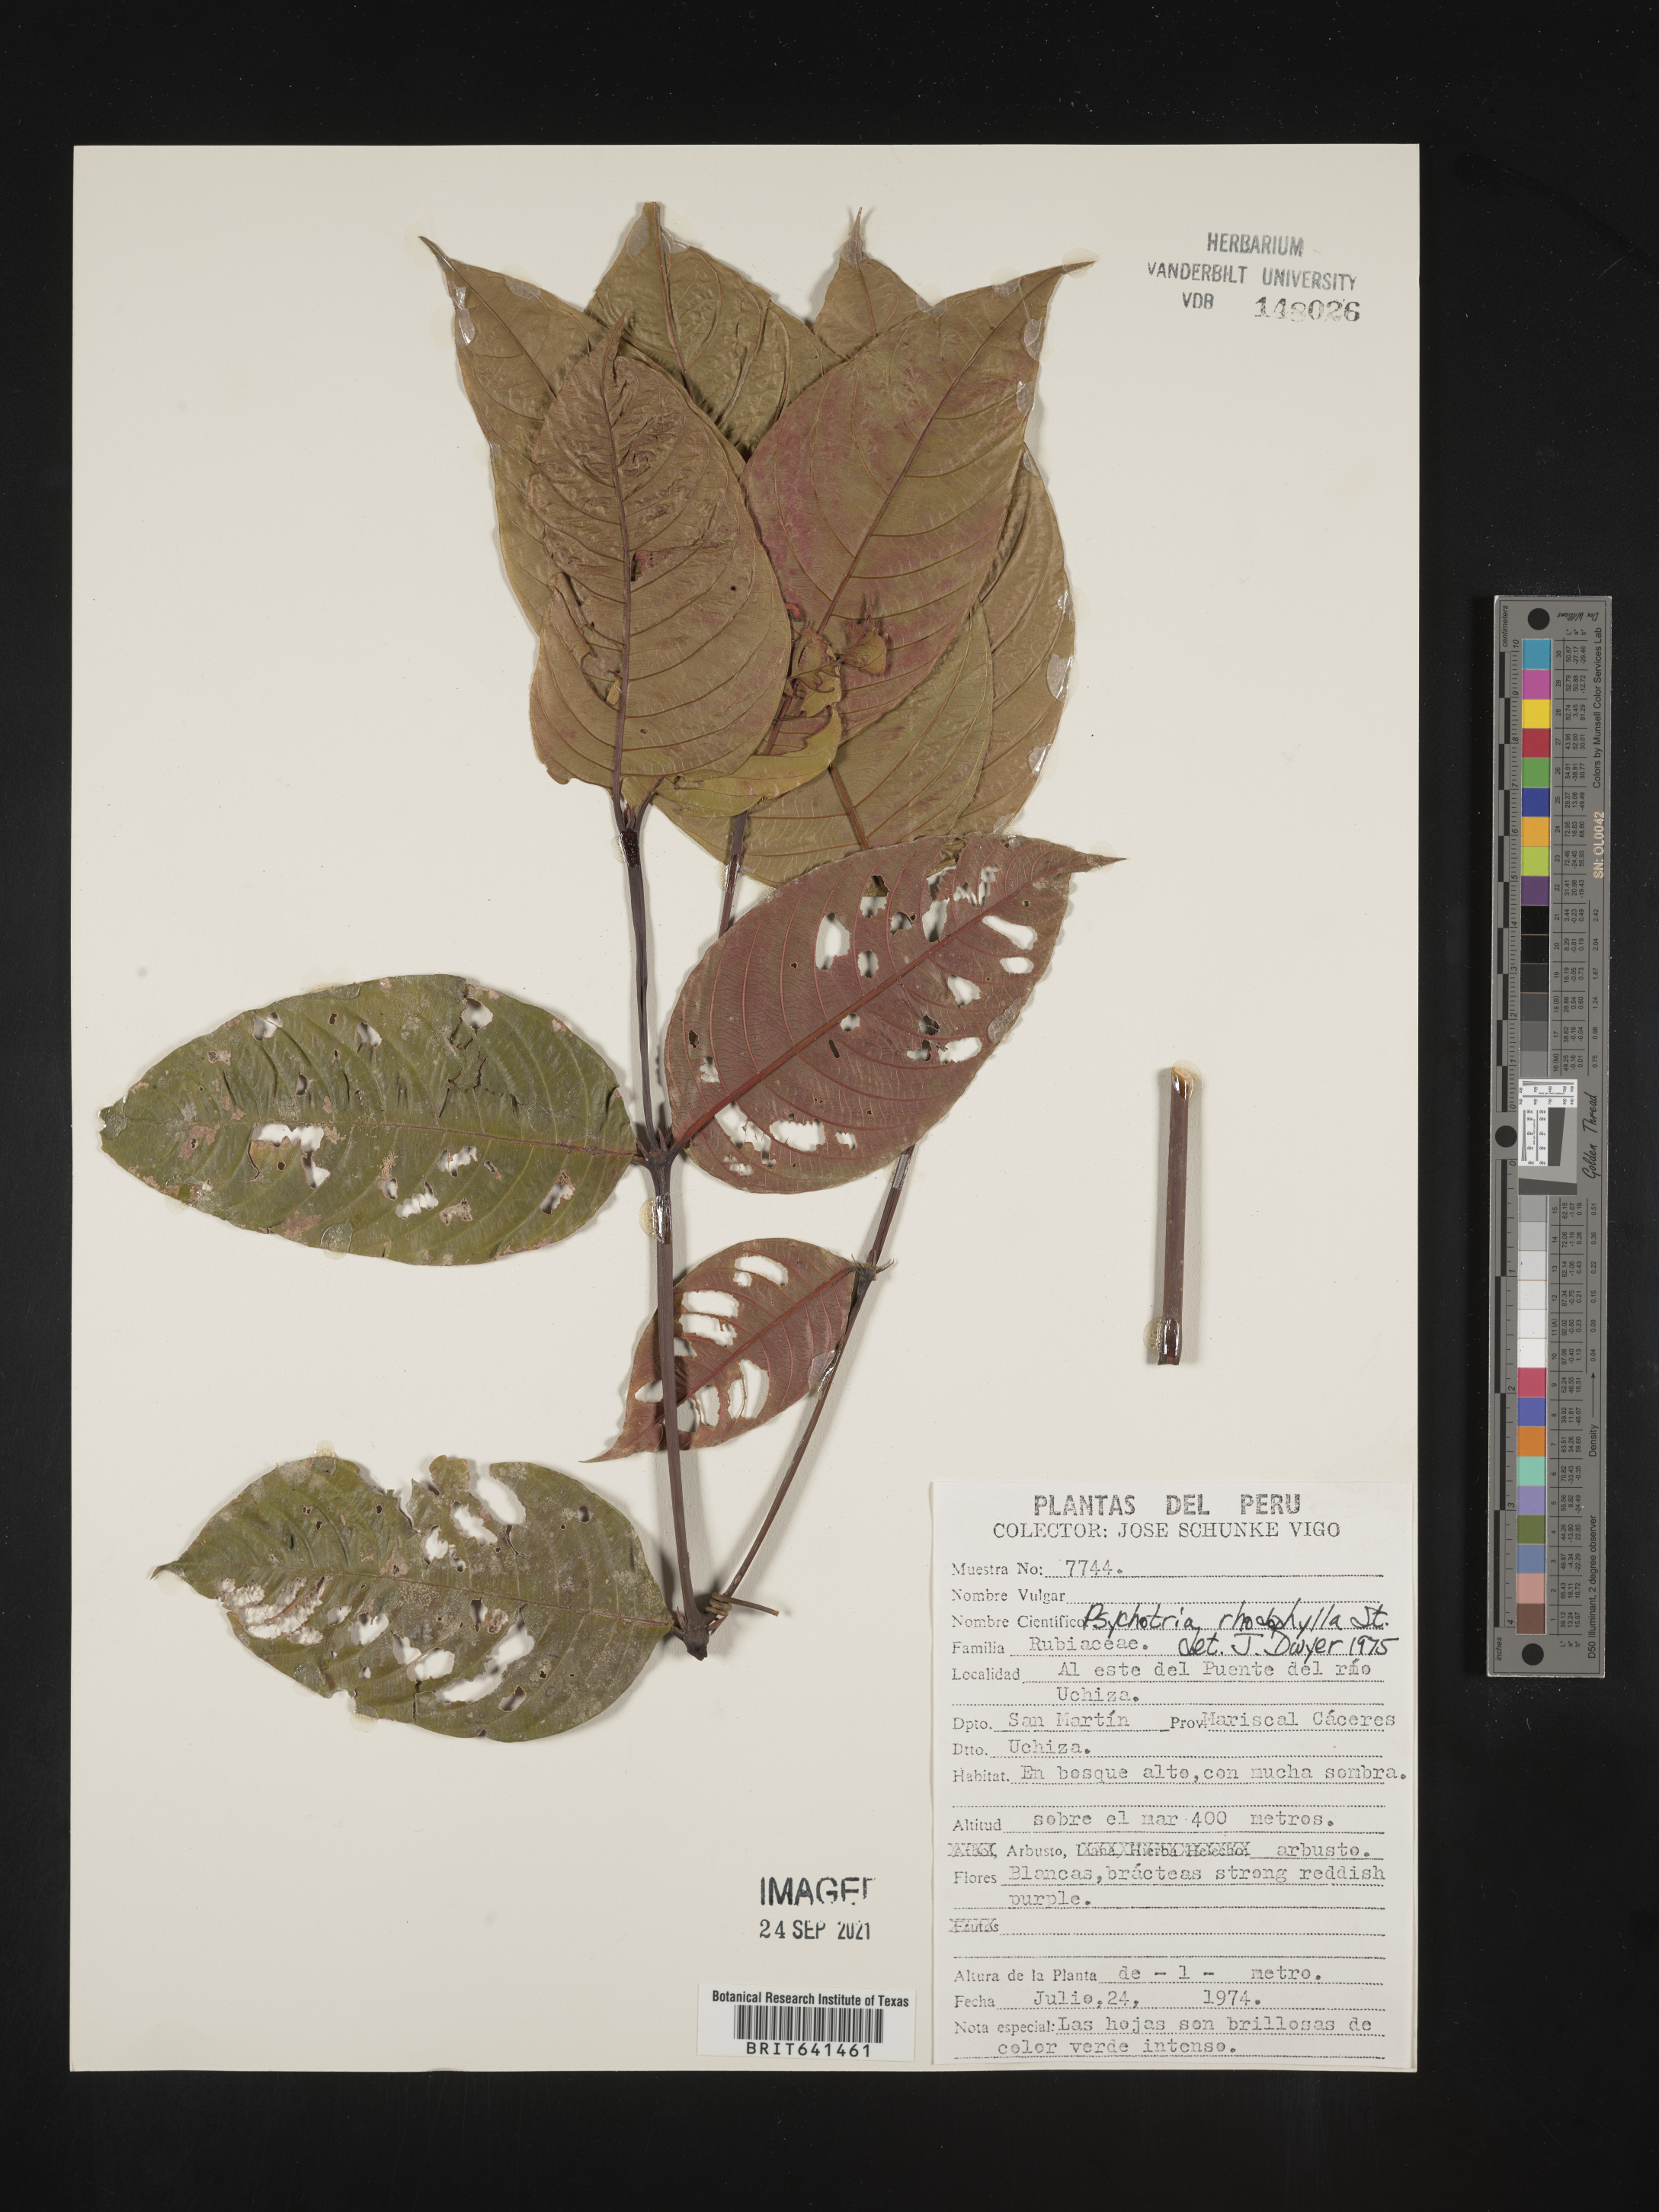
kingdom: Plantae
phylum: Tracheophyta
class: Magnoliopsida
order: Gentianales
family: Rubiaceae
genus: Psychotria
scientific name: Psychotria
